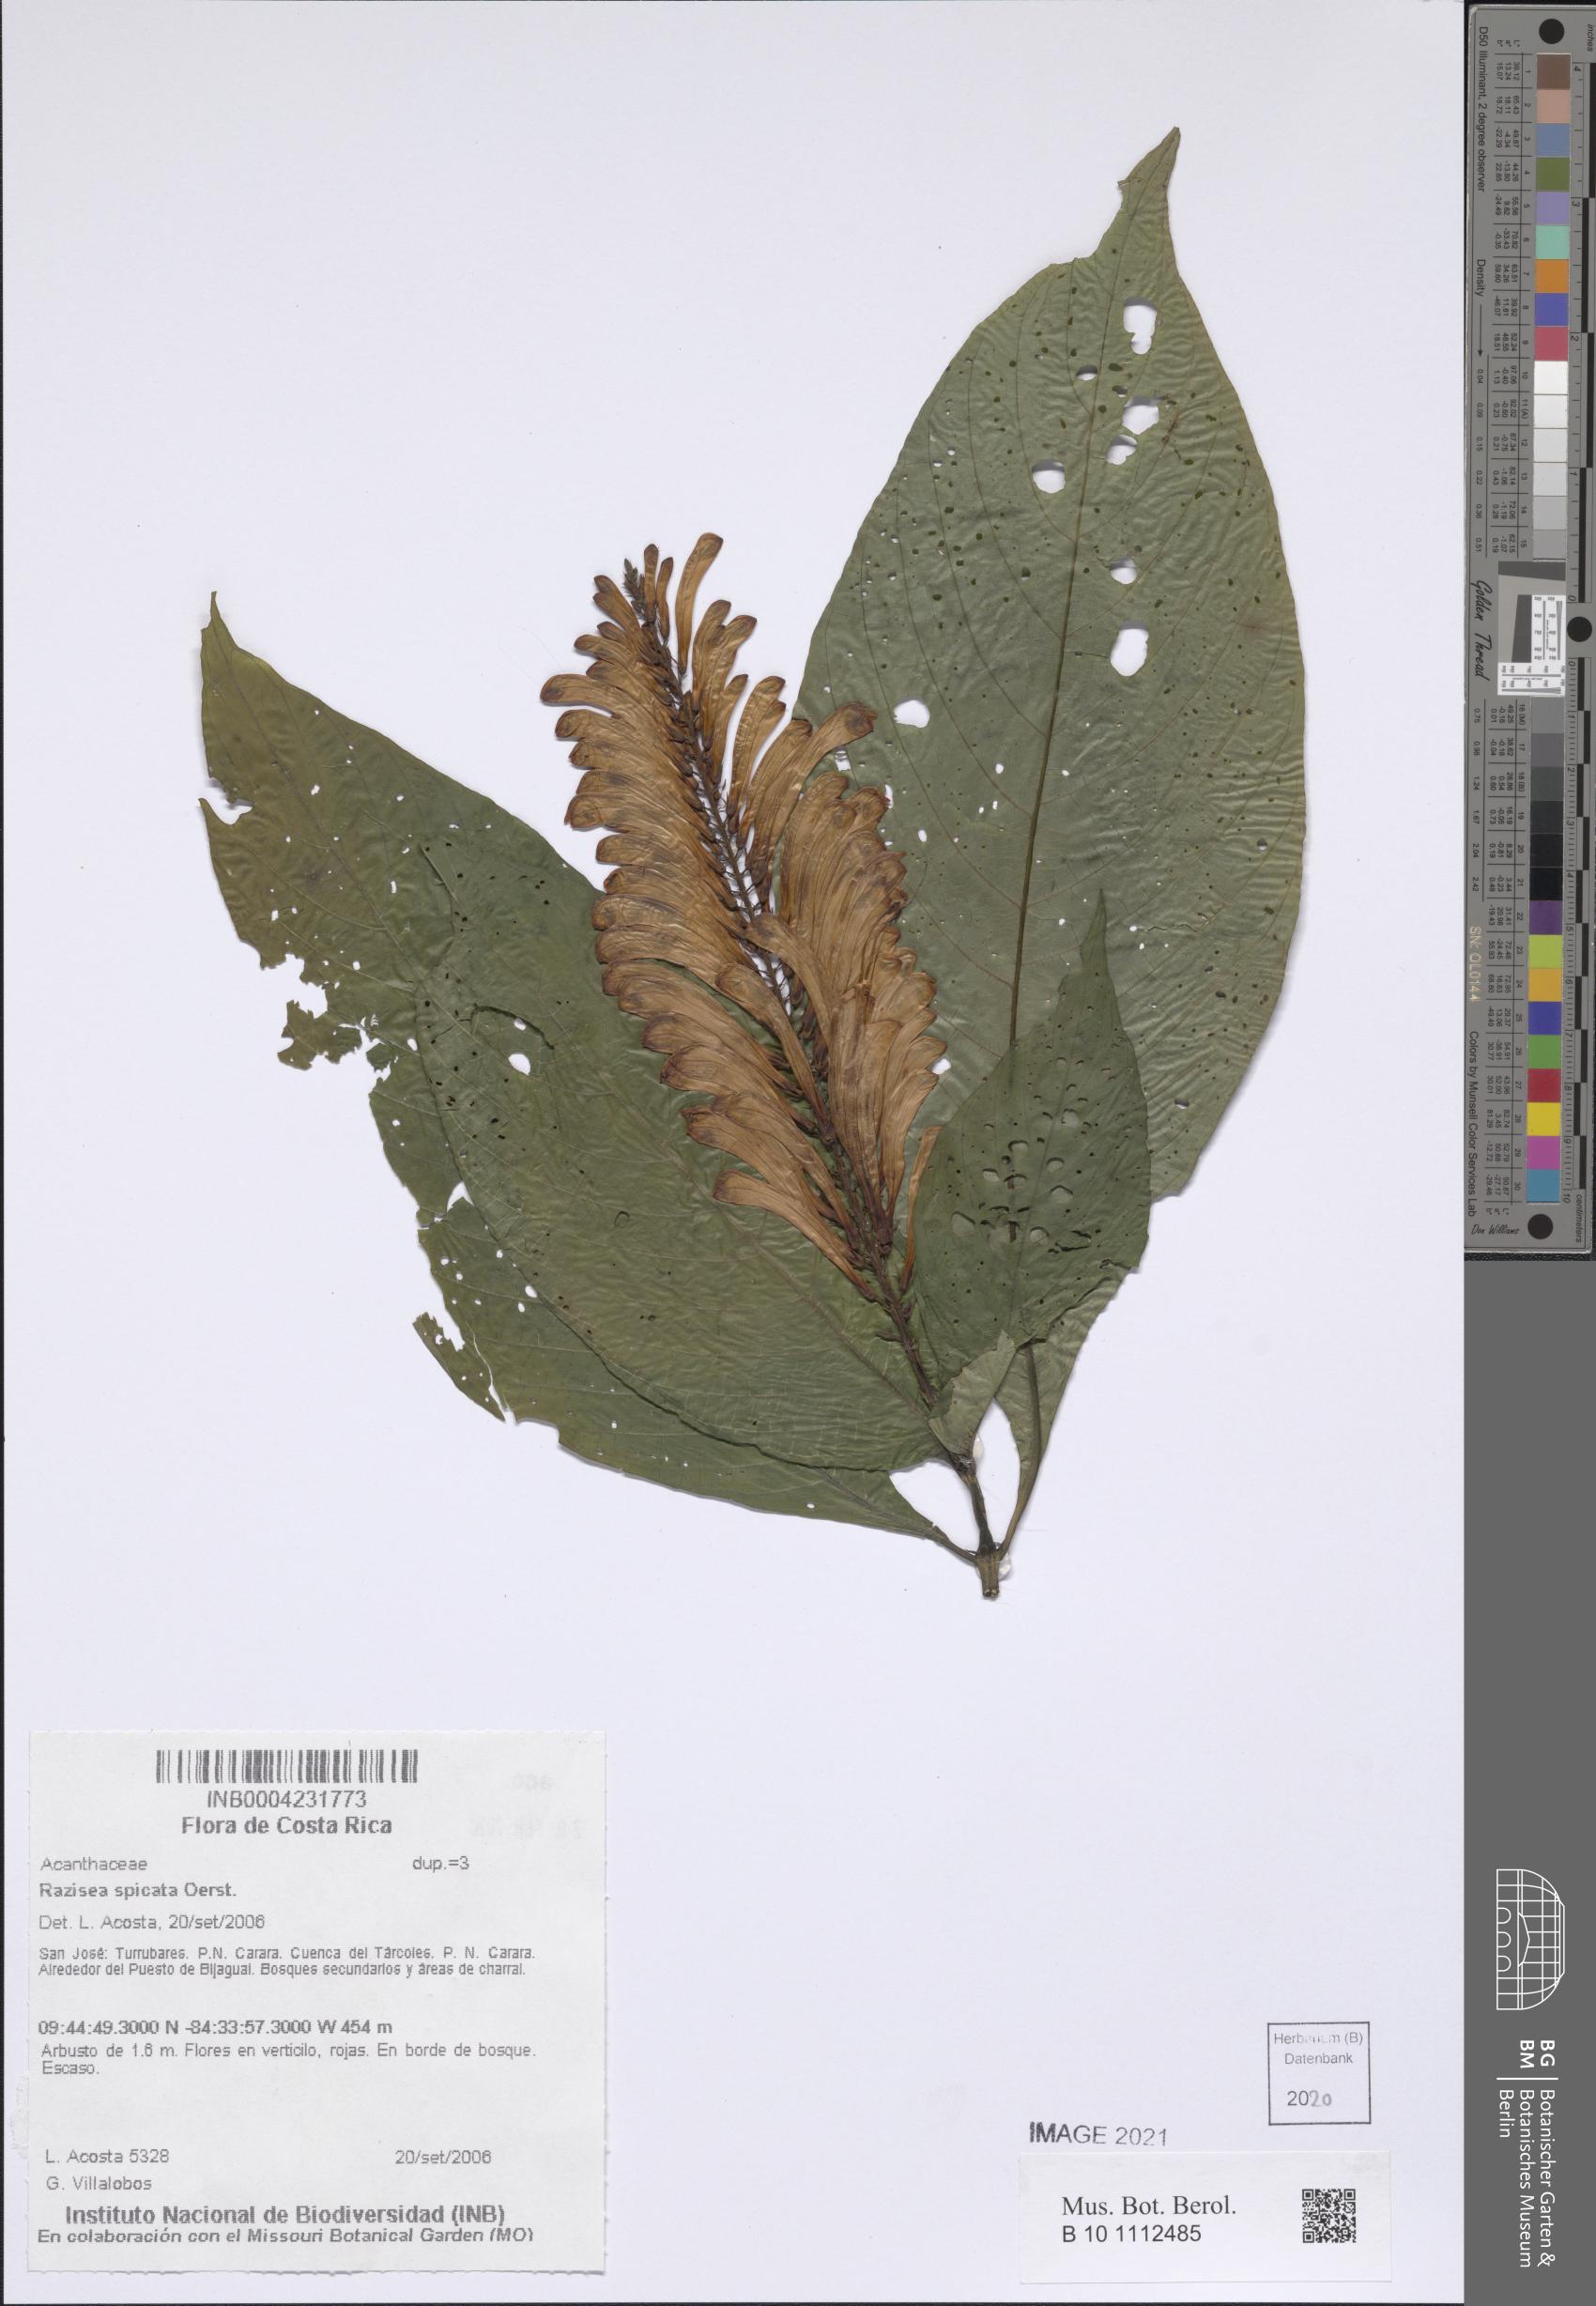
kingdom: Plantae
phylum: Tracheophyta
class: Magnoliopsida
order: Lamiales
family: Acanthaceae
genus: Stenostephanus
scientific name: Stenostephanus leiorhachis
